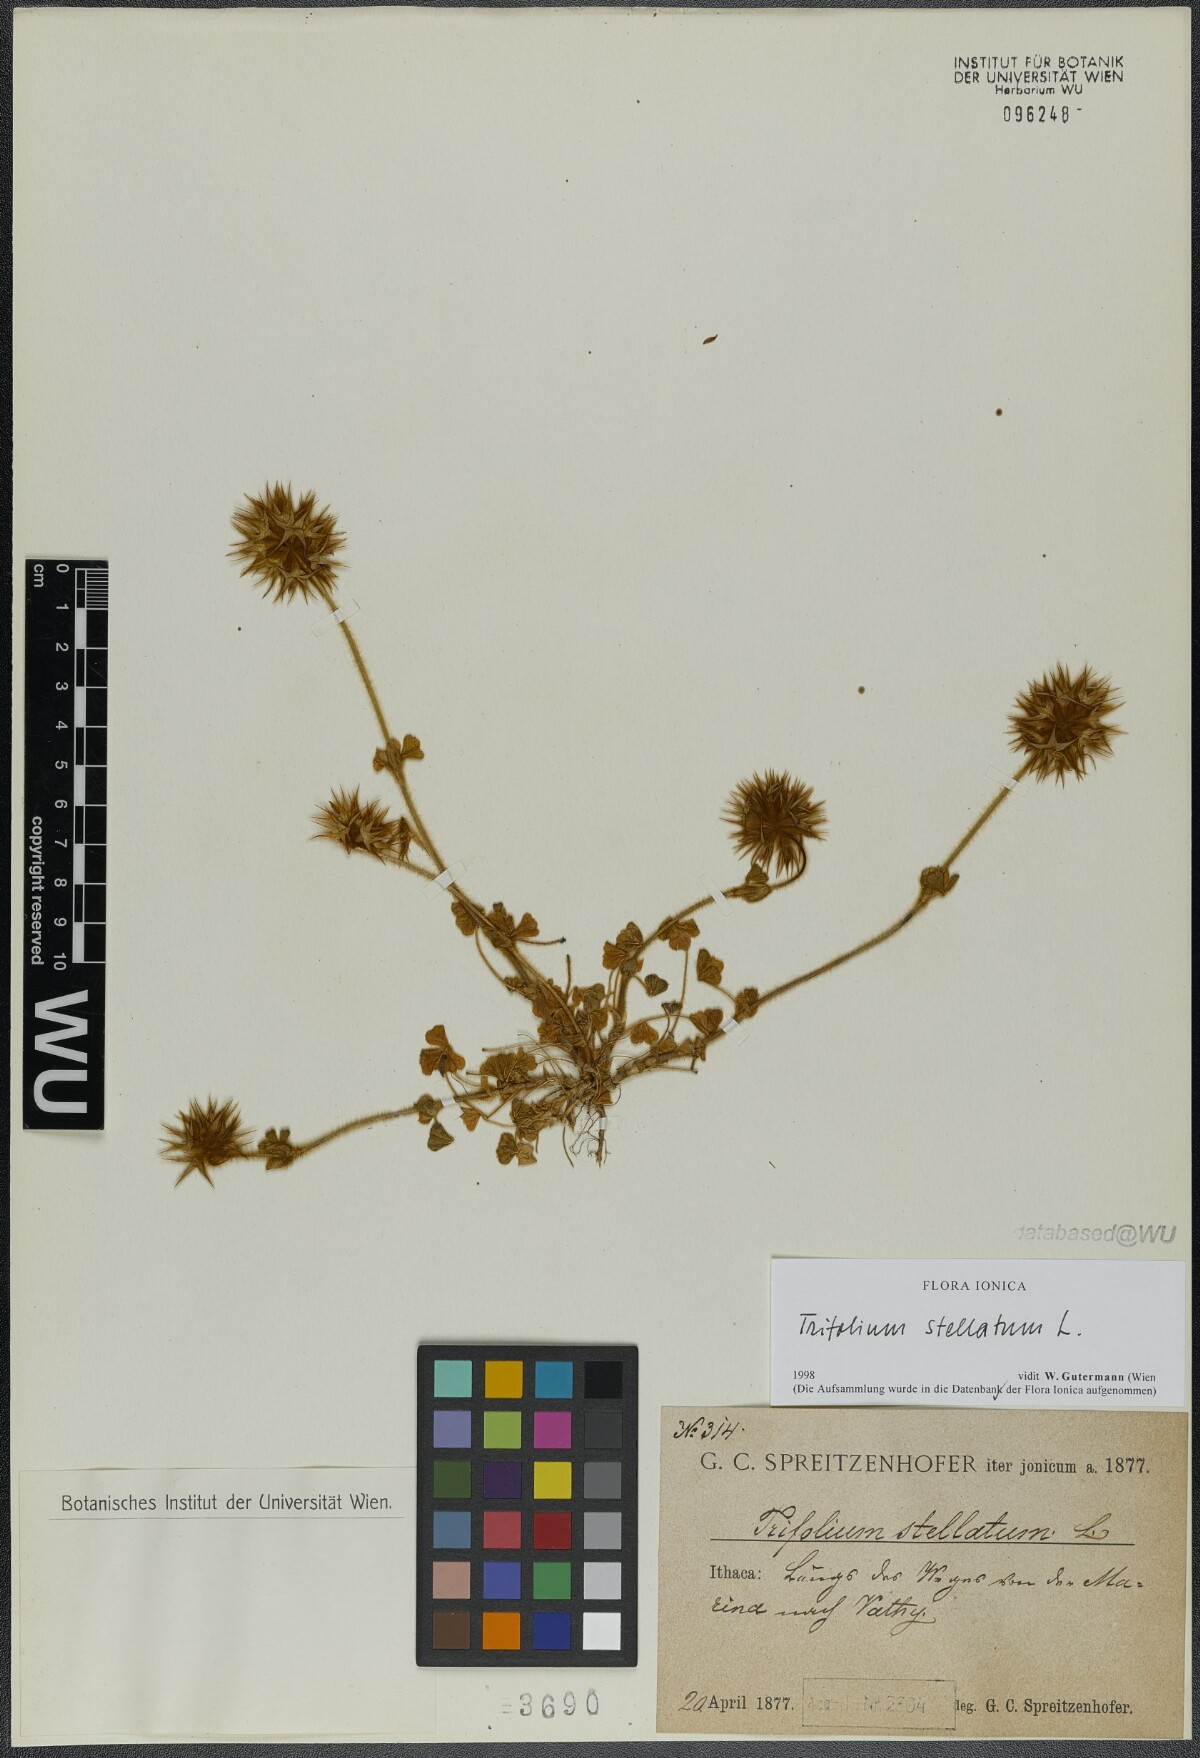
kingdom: Plantae
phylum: Tracheophyta
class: Magnoliopsida
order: Fabales
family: Fabaceae
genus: Trifolium
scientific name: Trifolium stellatum
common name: Starry clover
